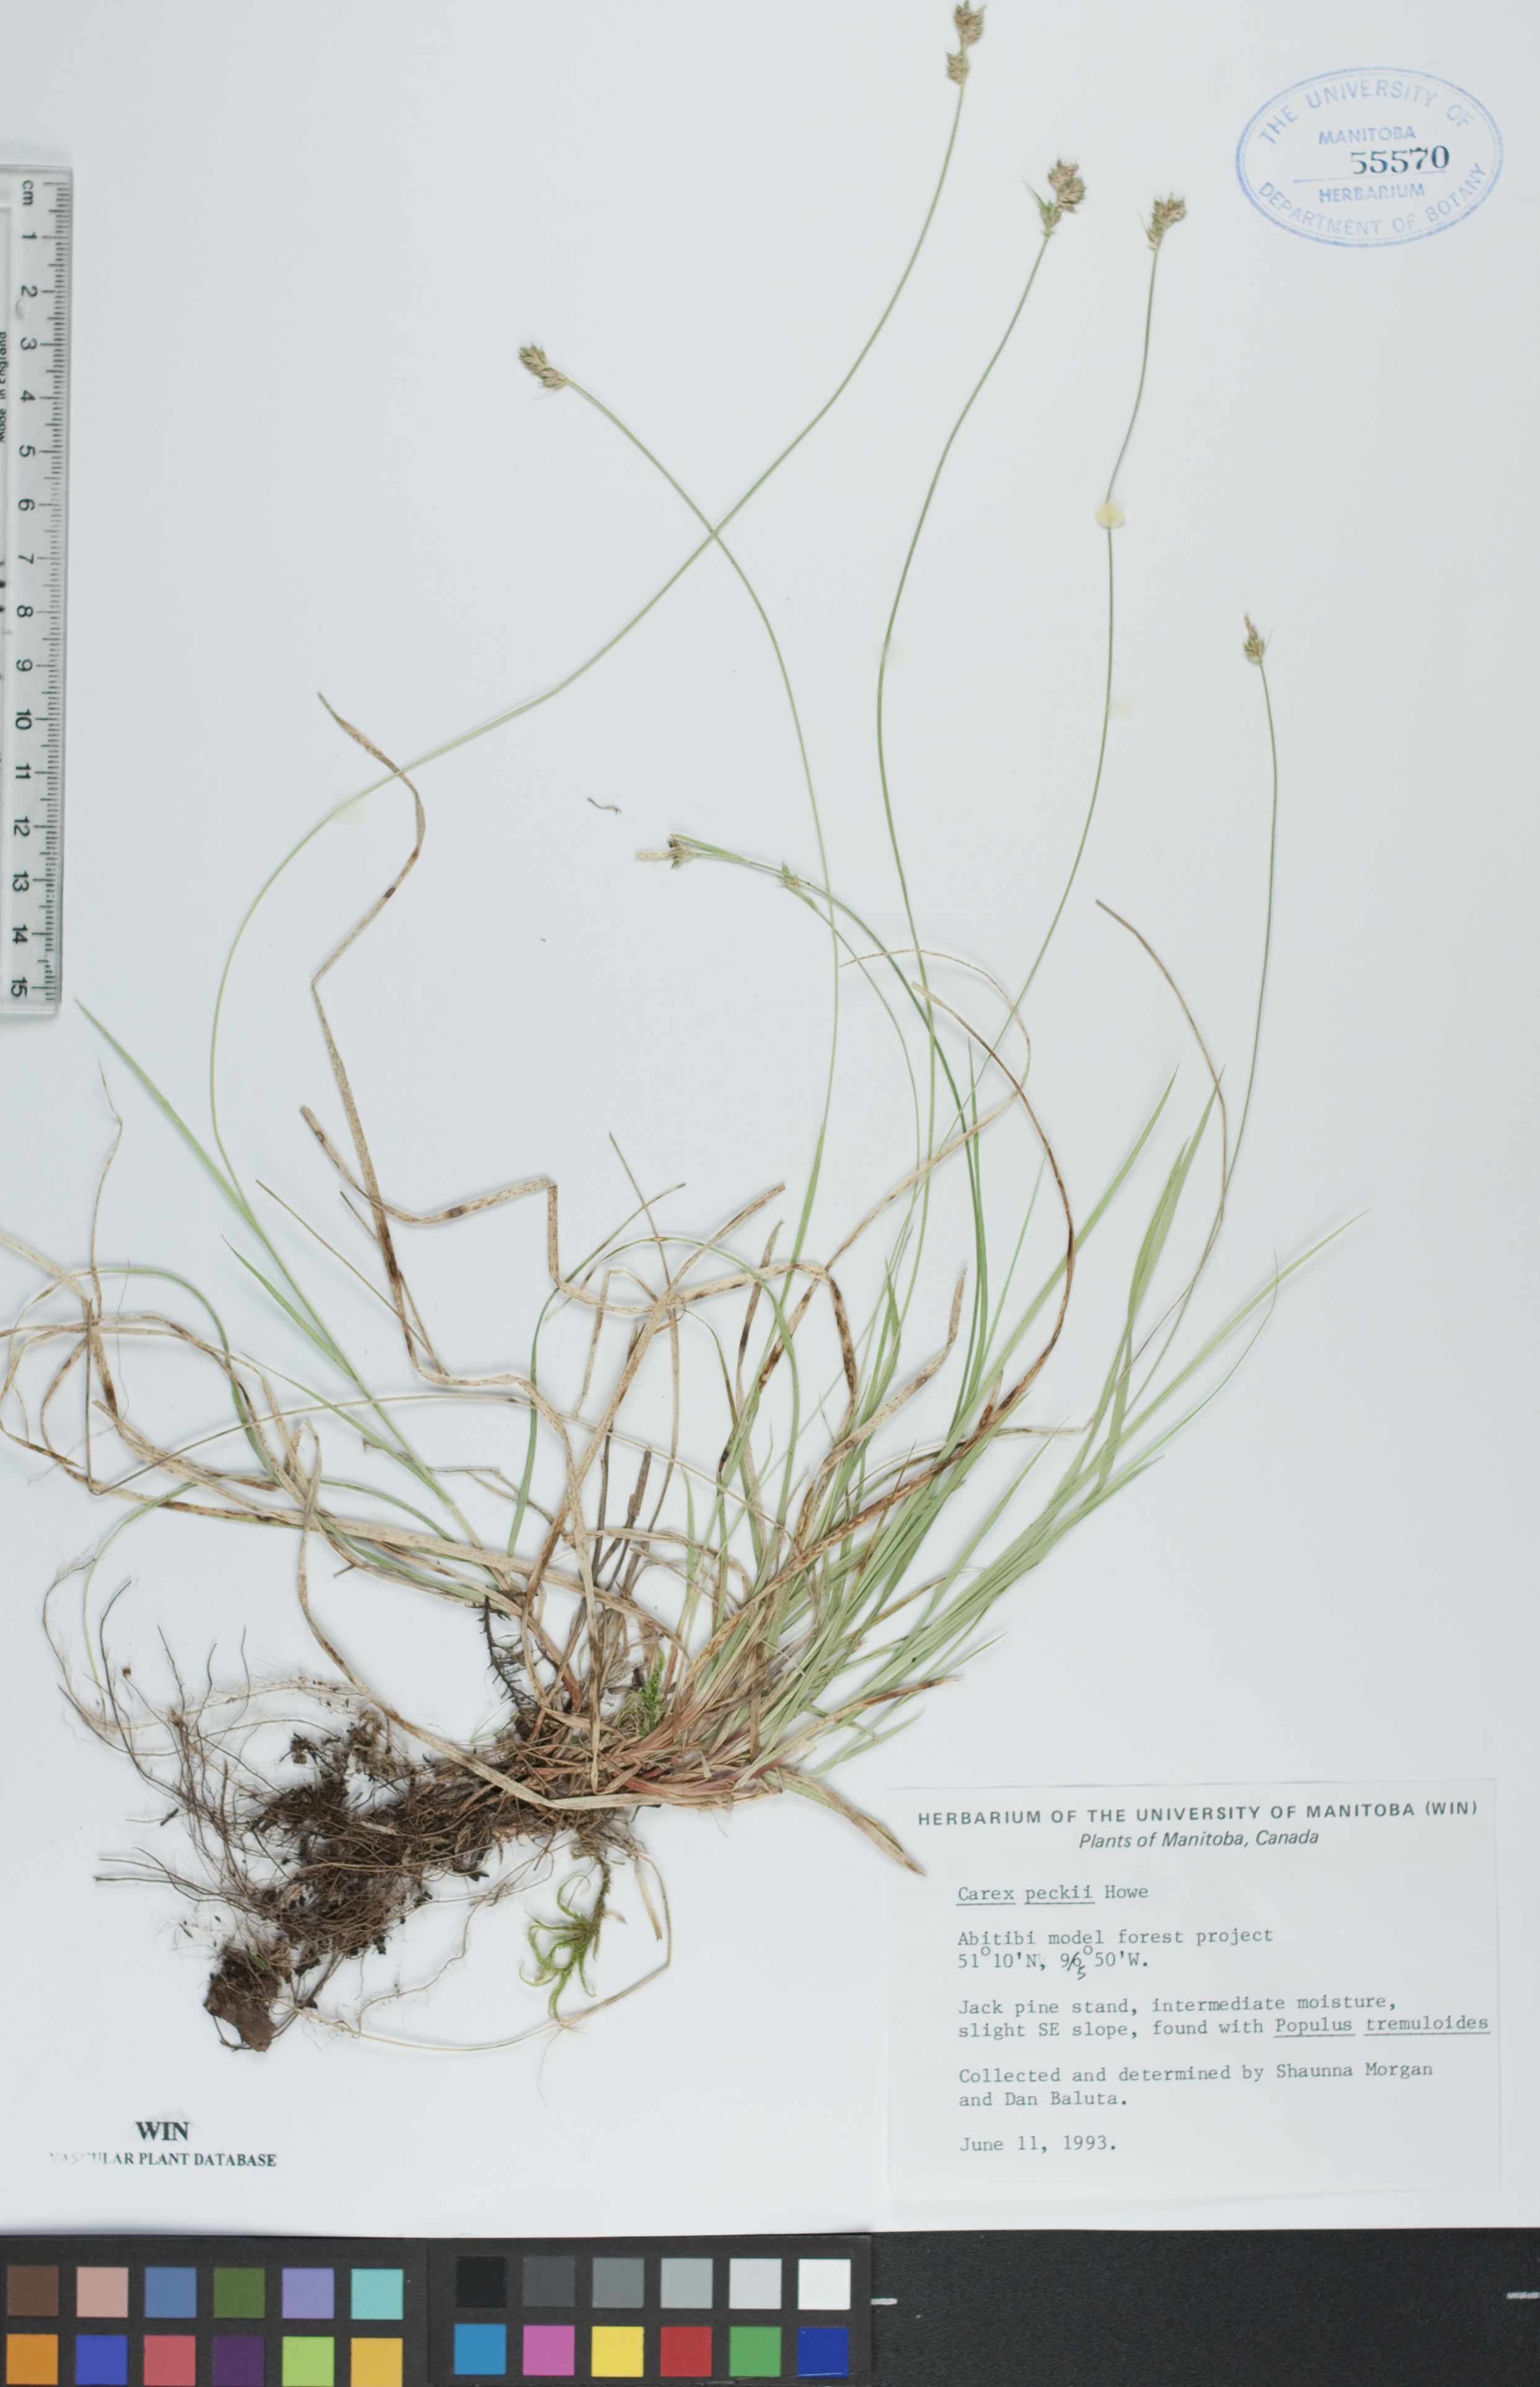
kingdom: Plantae
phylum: Tracheophyta
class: Liliopsida
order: Poales
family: Cyperaceae
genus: Carex
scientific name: Carex peckii
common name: Peck's oak sedge
